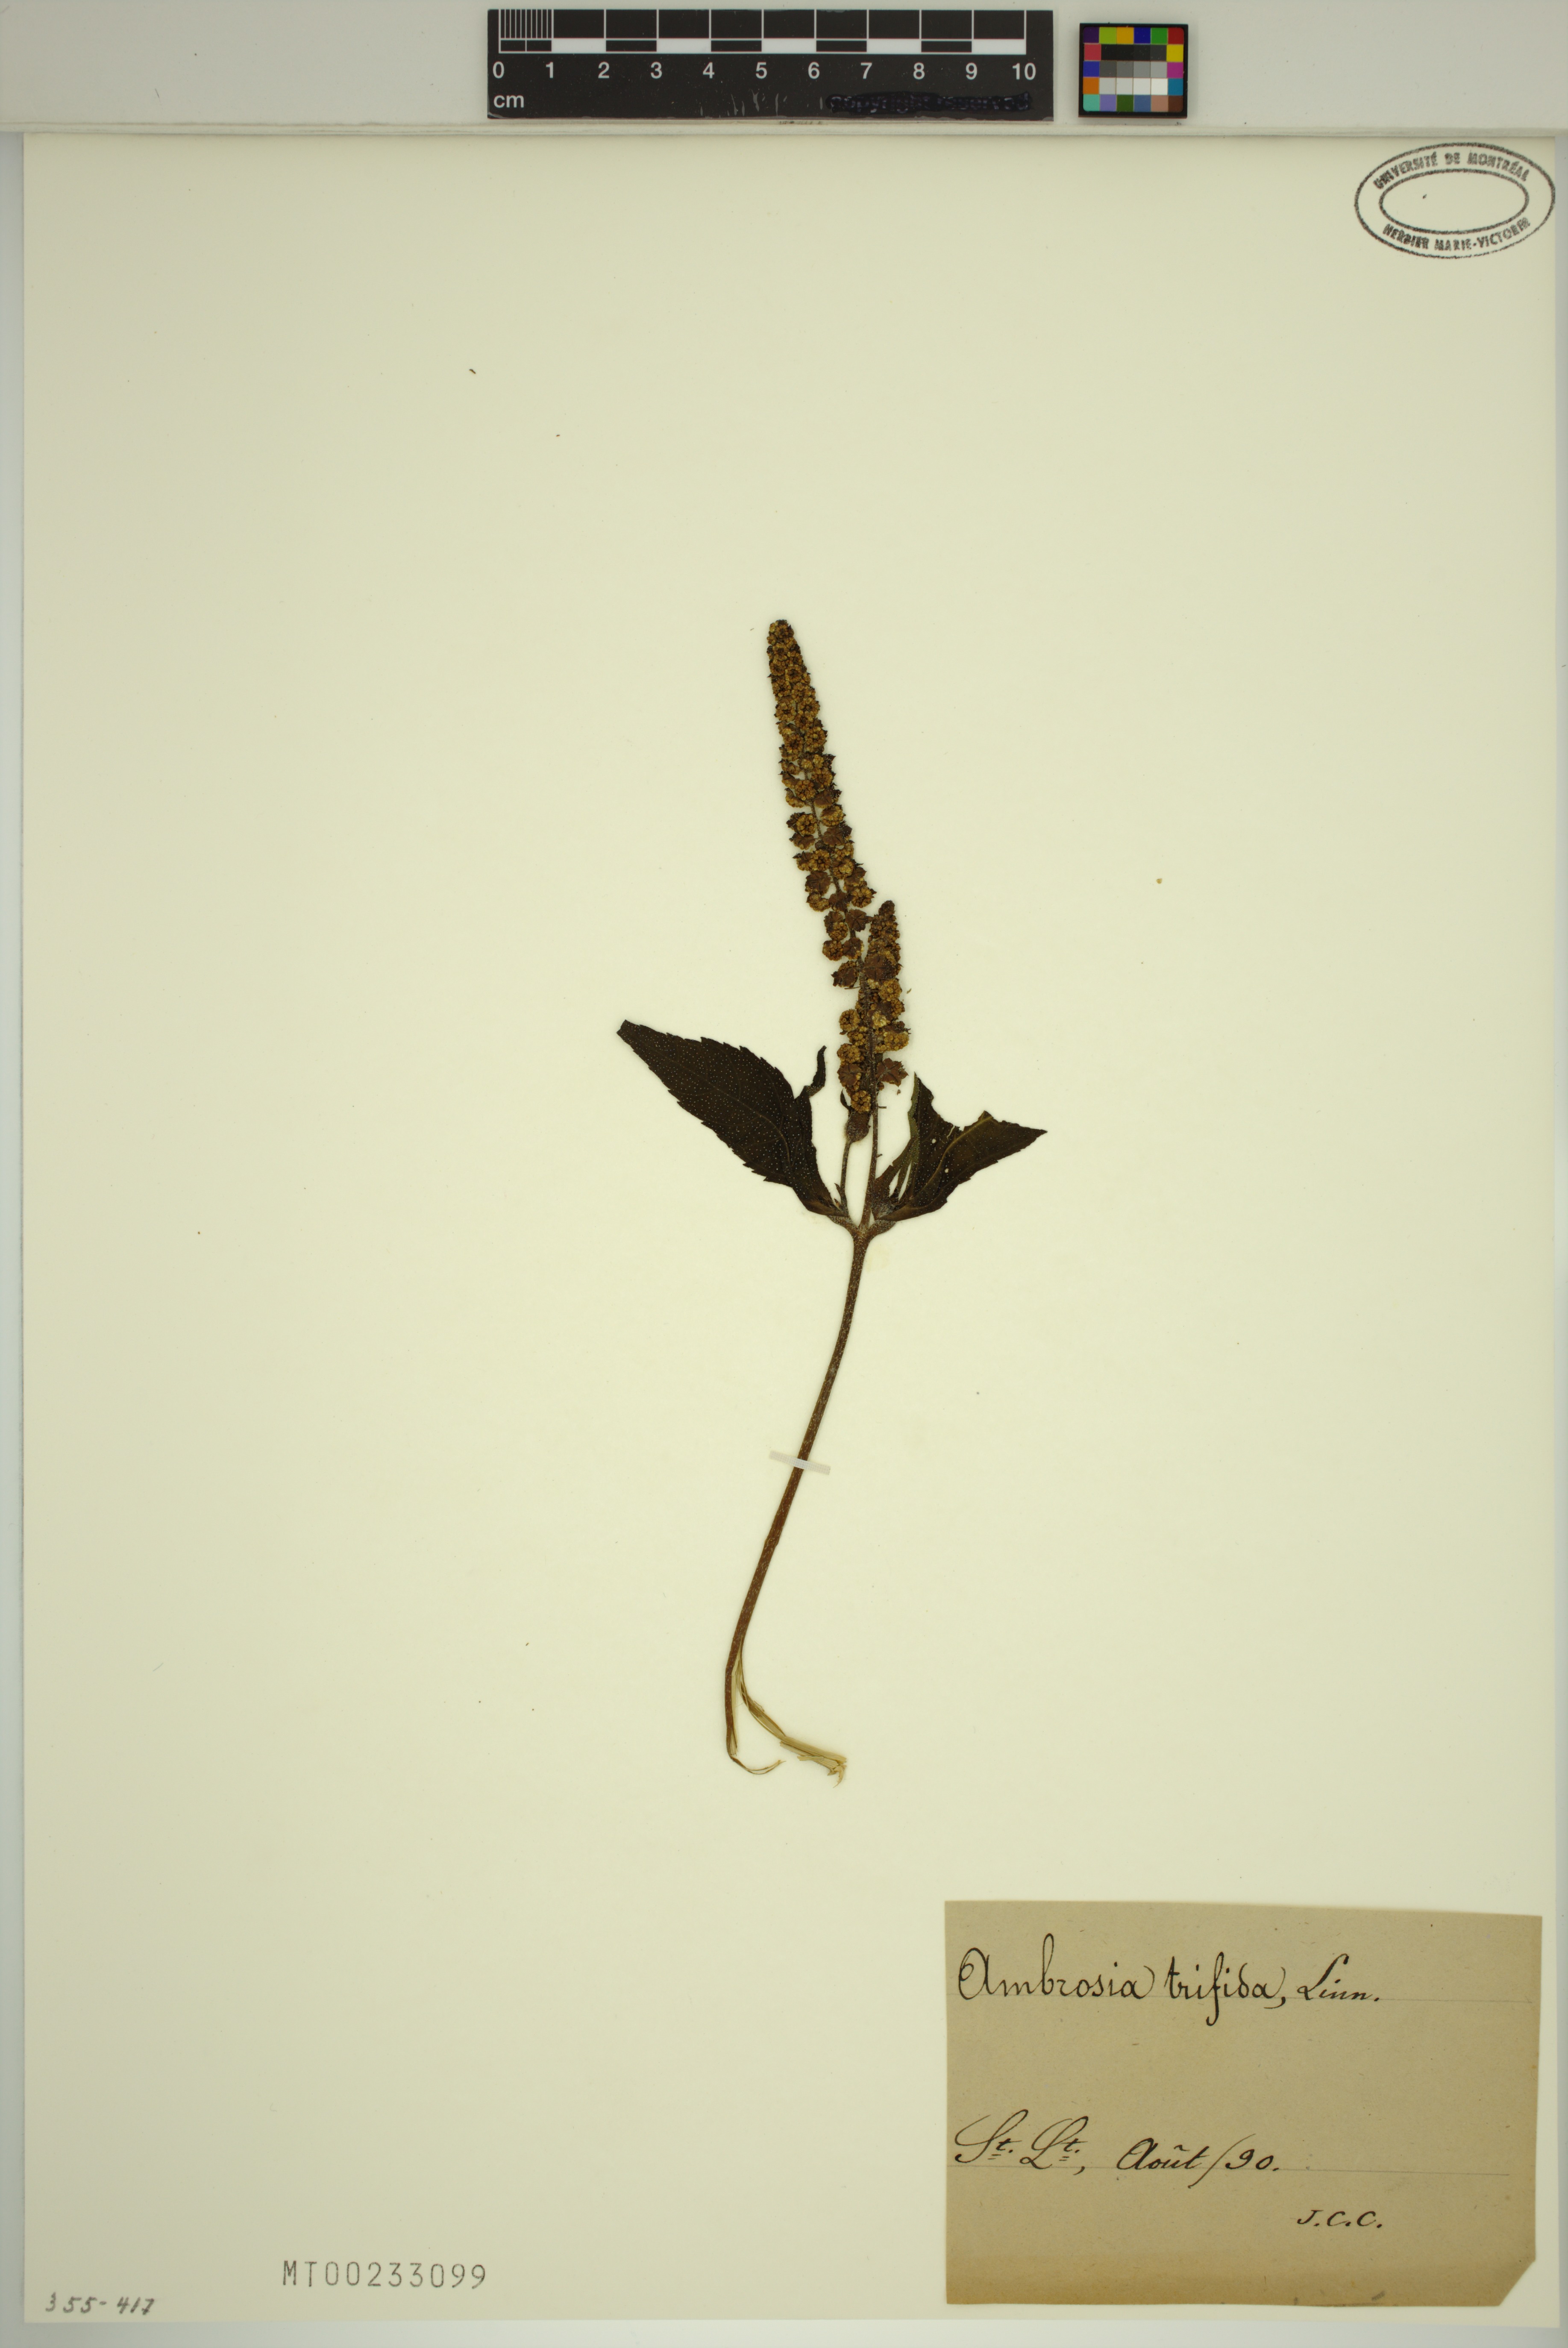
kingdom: Plantae
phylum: Tracheophyta
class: Magnoliopsida
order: Asterales
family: Asteraceae
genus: Ambrosia
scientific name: Ambrosia trifida
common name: Giant ragweed
